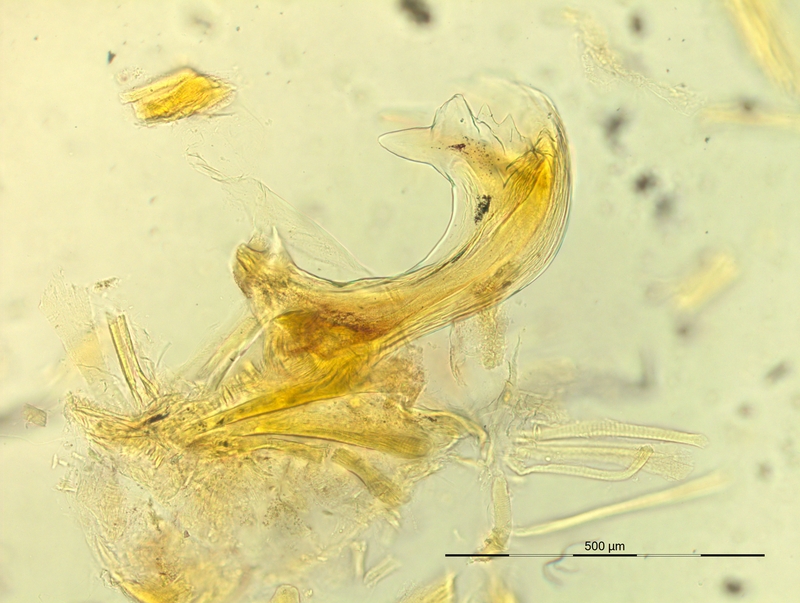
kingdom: Animalia
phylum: Arthropoda
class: Diplopoda
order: Chordeumatida
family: Craspedosomatidae
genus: Pyrgocyphosoma
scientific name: Pyrgocyphosoma longilamellatum
